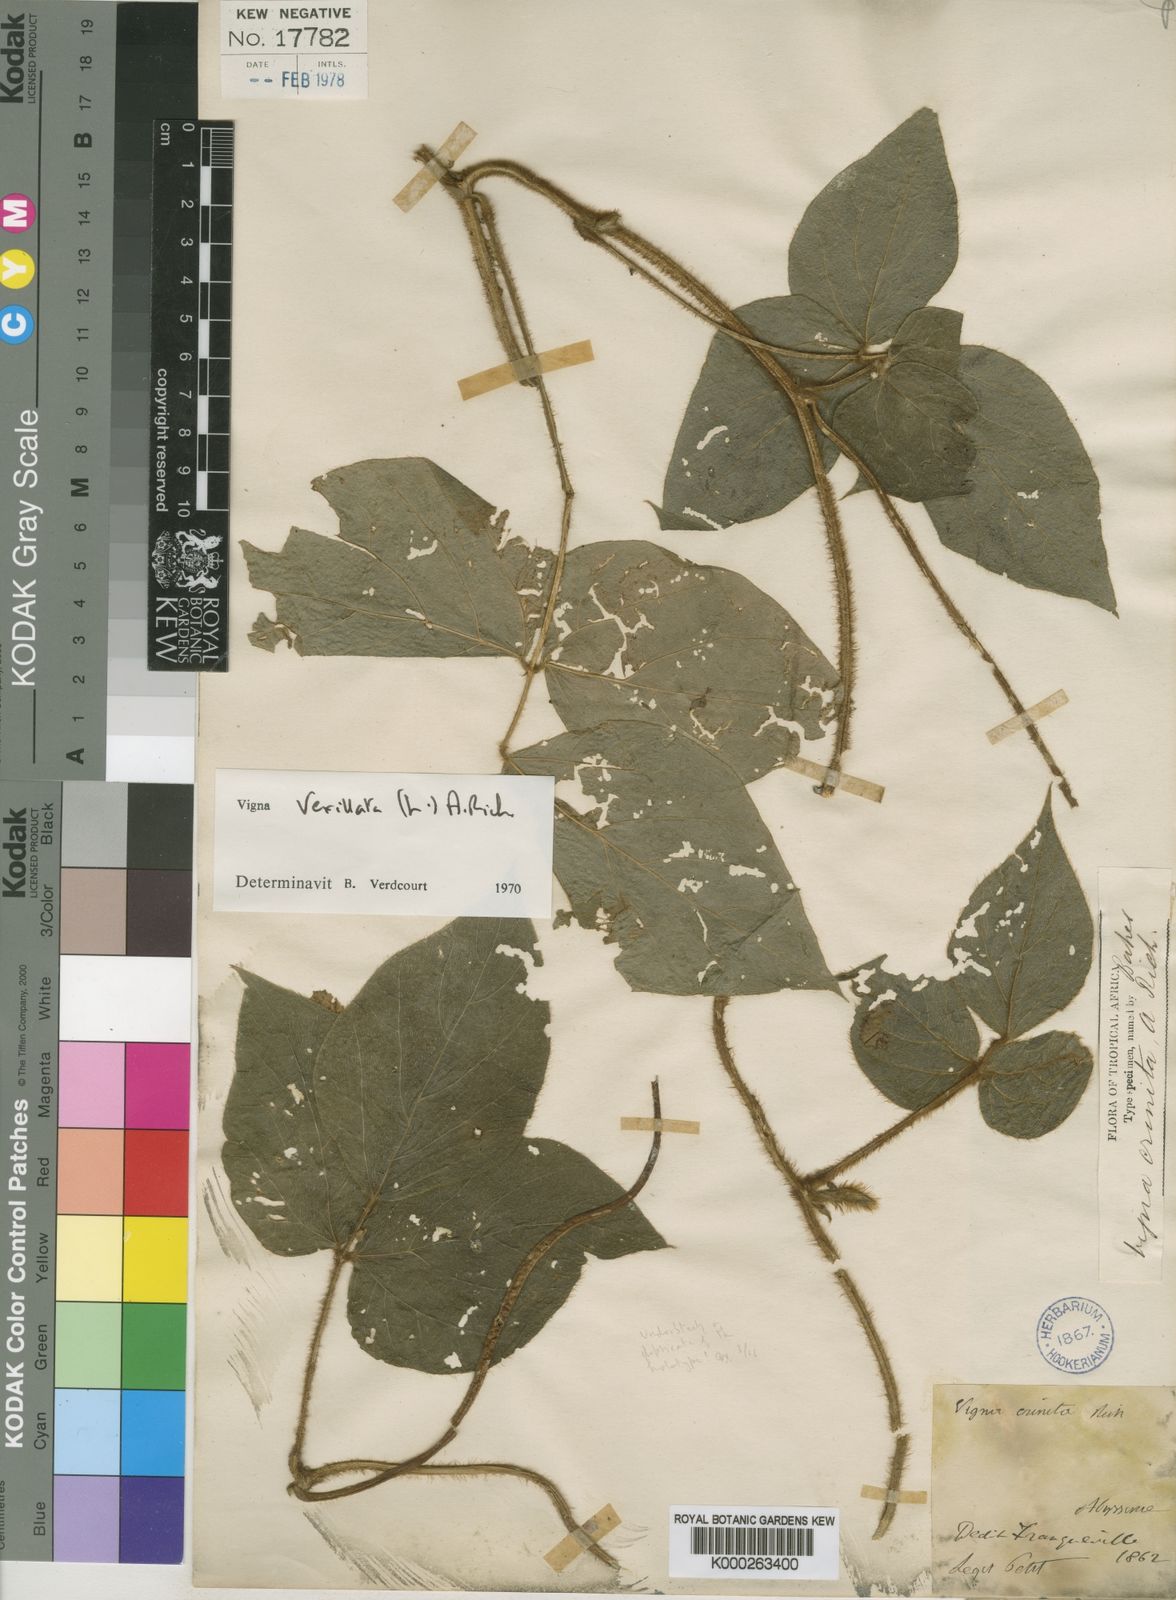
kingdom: Plantae
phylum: Tracheophyta
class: Magnoliopsida
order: Fabales
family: Fabaceae
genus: Vigna
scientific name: Vigna vexillata
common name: Zombi pea
